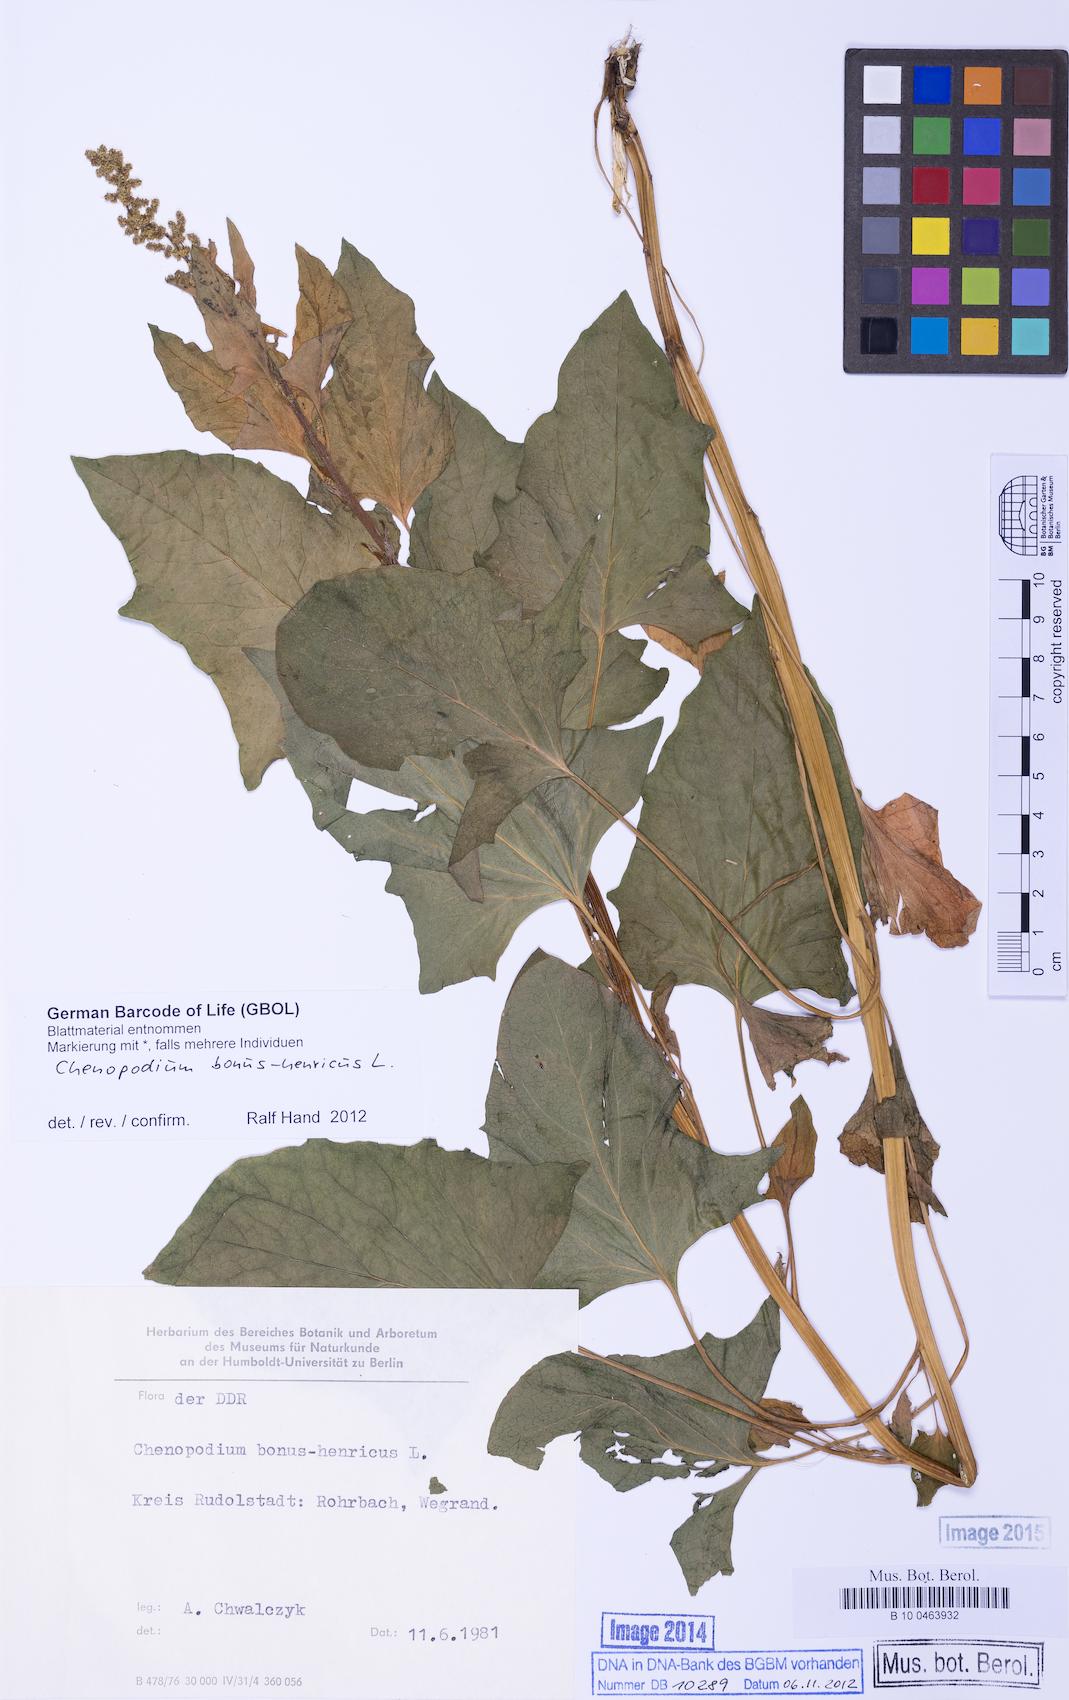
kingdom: Plantae
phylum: Tracheophyta
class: Magnoliopsida
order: Caryophyllales
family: Amaranthaceae
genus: Blitum
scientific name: Blitum bonus-henricus
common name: Good king henry
